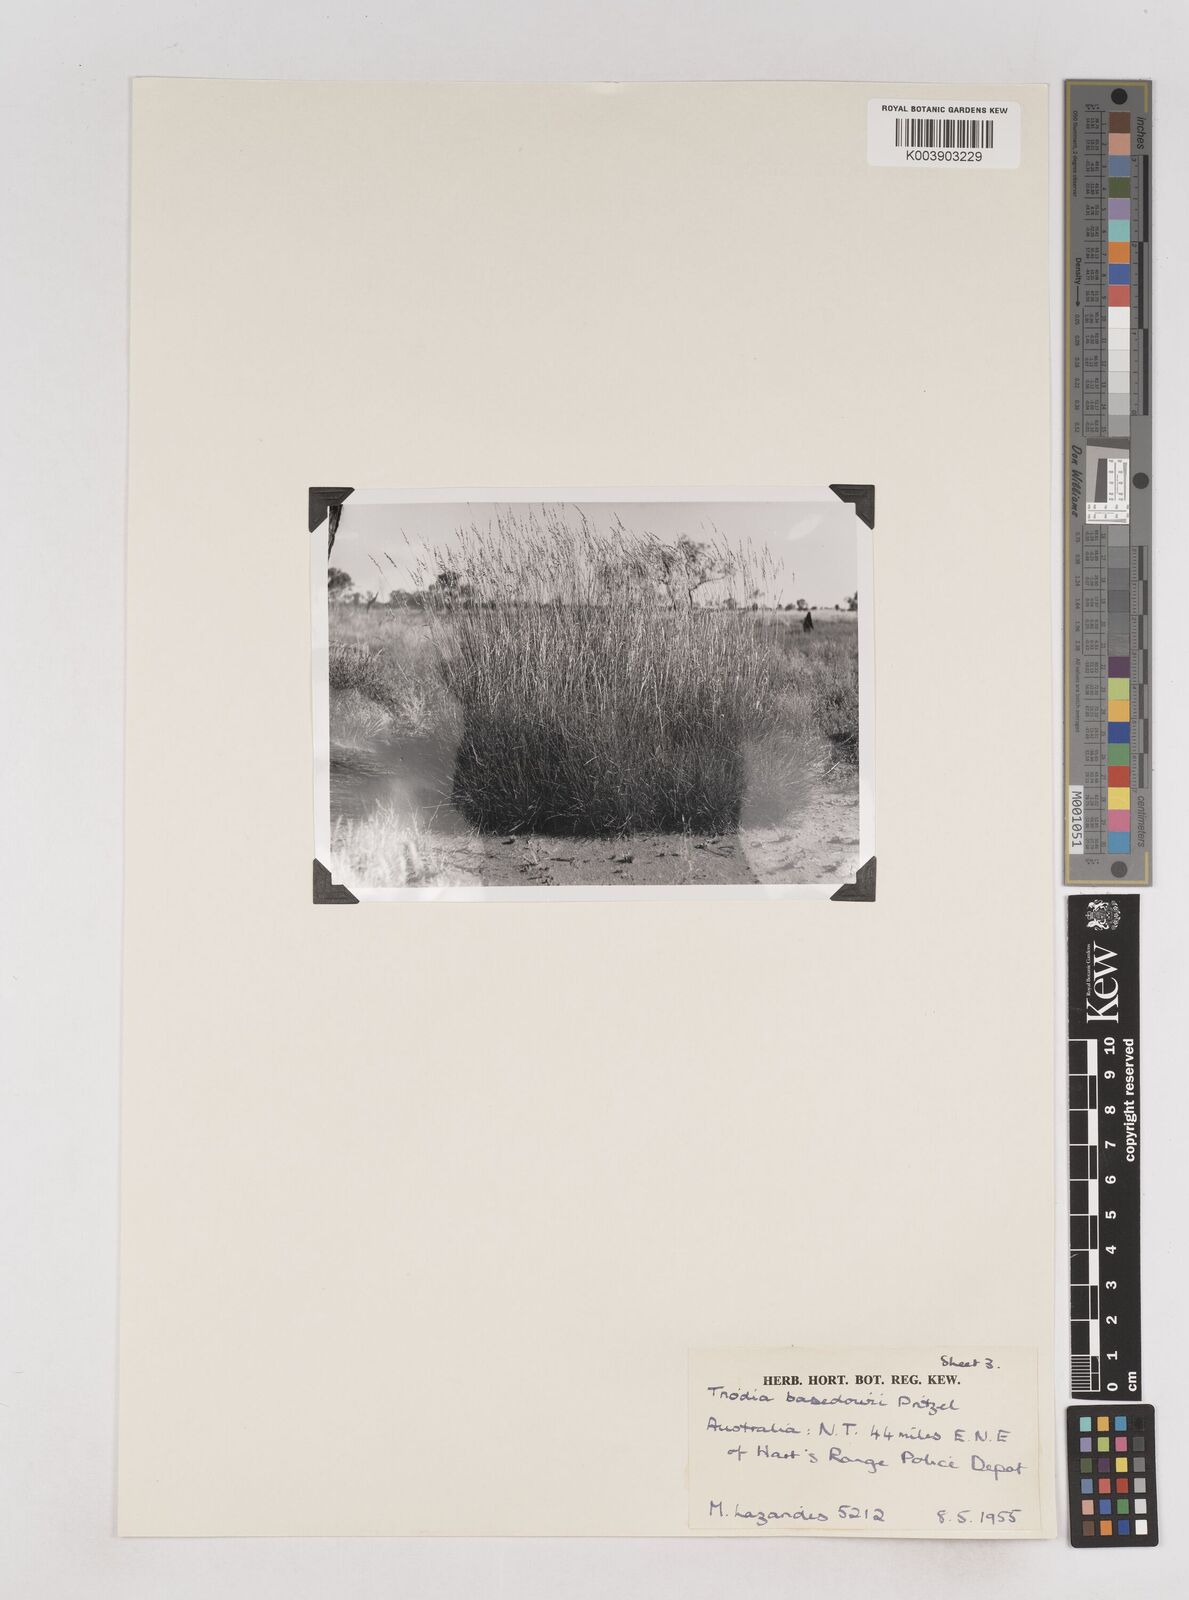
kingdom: Plantae
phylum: Tracheophyta
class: Liliopsida
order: Poales
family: Poaceae
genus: Triodia
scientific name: Triodia basedowii
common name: Hard spinifex
